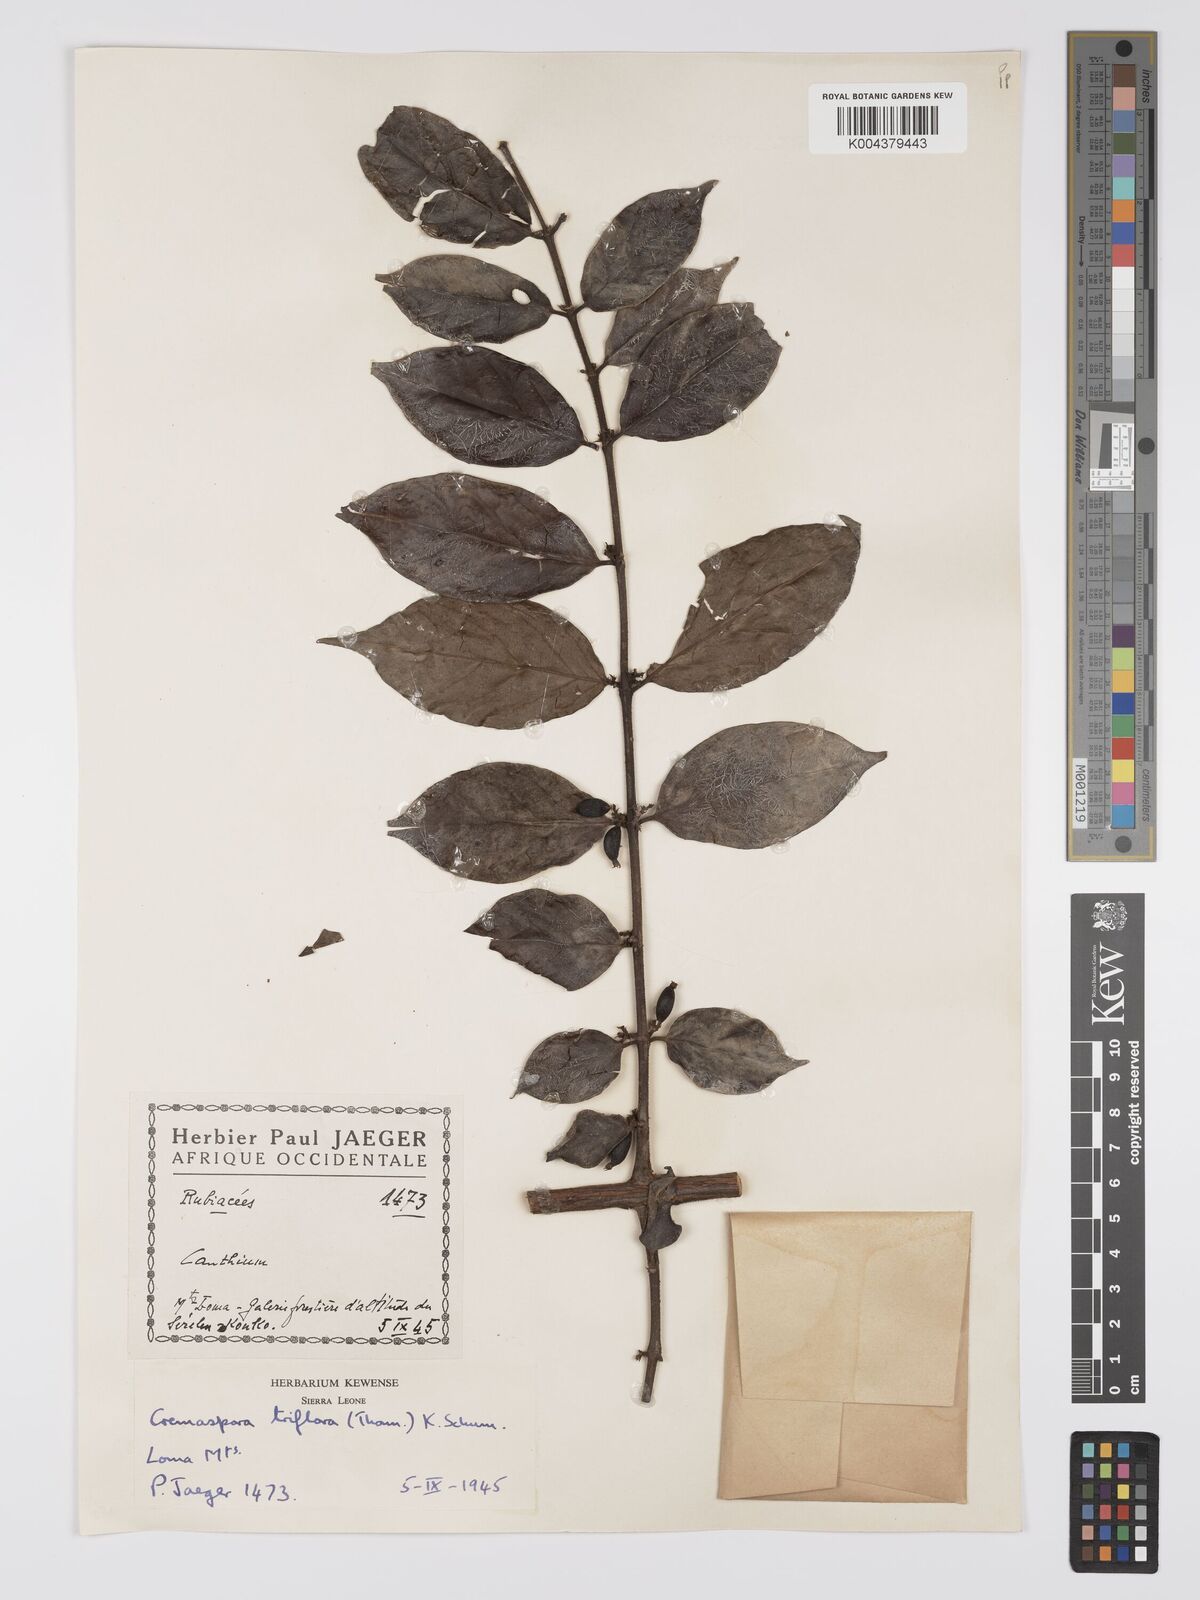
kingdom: Plantae
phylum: Tracheophyta
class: Magnoliopsida
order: Gentianales
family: Rubiaceae
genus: Cremaspora
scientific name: Cremaspora triflora
